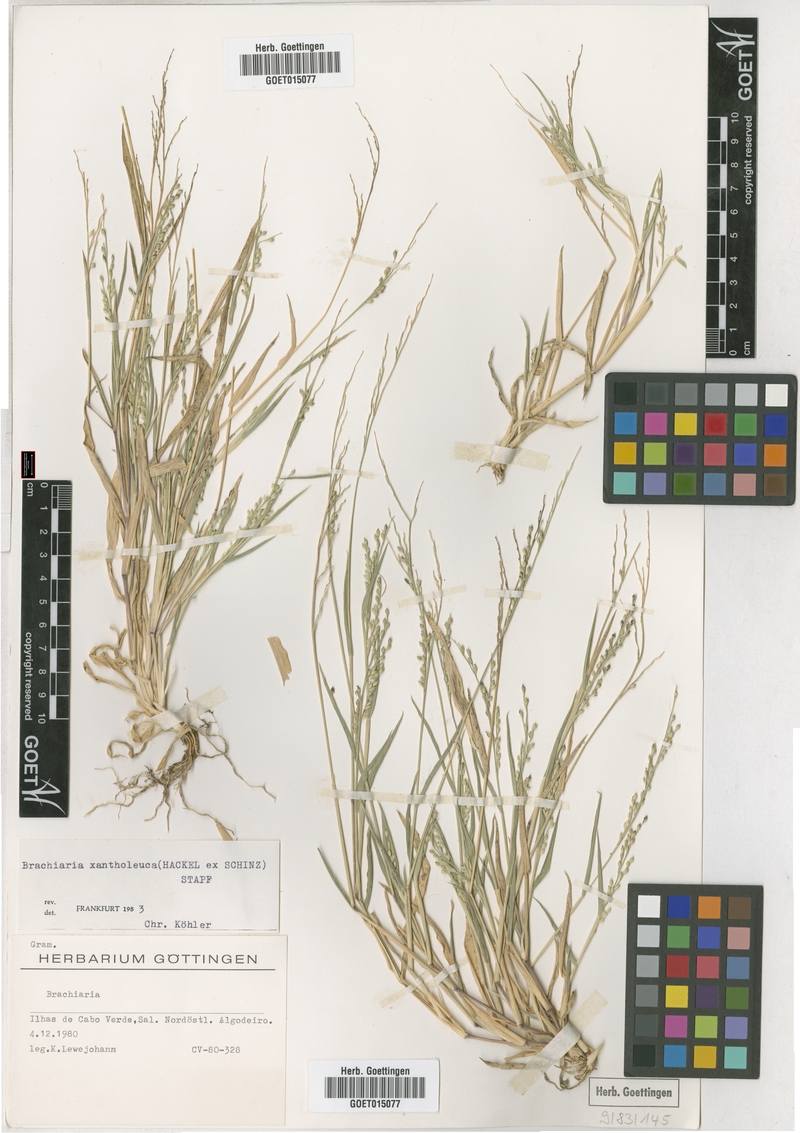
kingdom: Plantae
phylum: Tracheophyta
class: Liliopsida
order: Poales
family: Poaceae
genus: Urochloa
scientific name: Urochloa xantholeuca
